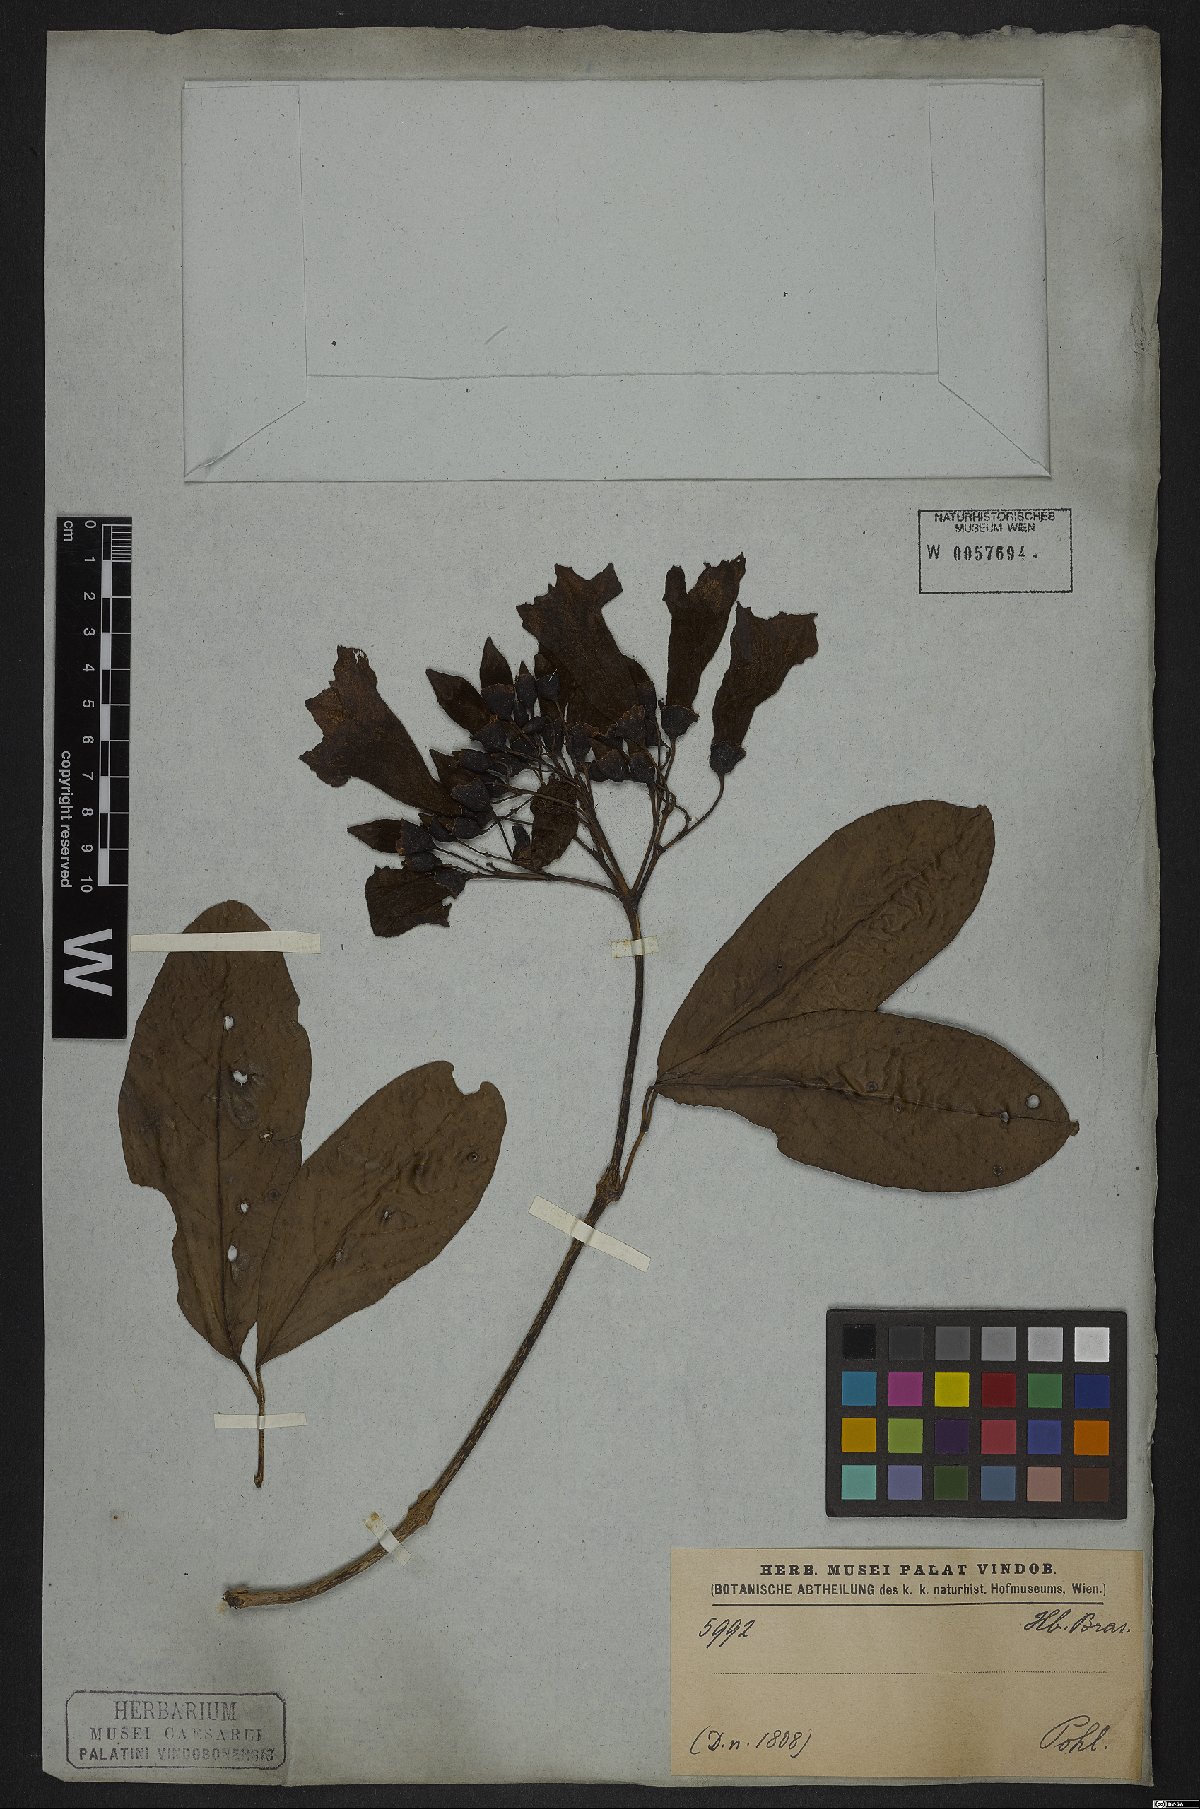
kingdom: Plantae
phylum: Tracheophyta
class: Magnoliopsida
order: Lamiales
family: Bignoniaceae
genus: Tanaecium
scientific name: Tanaecium pyramidatum
